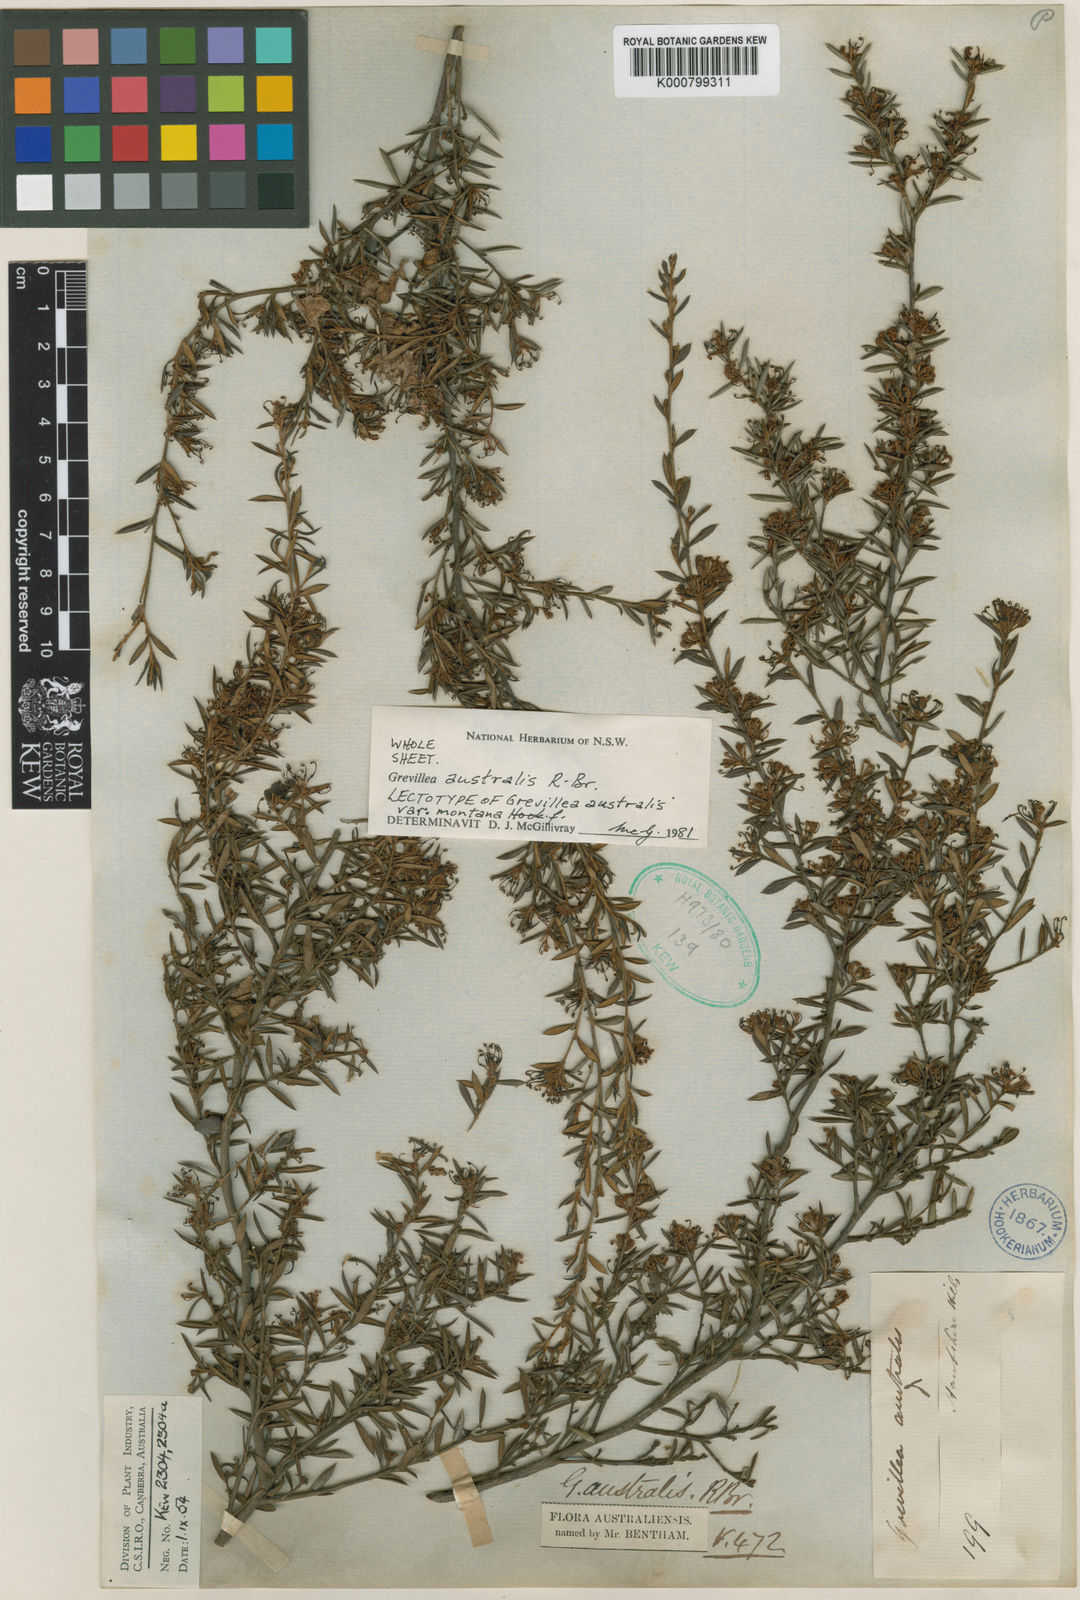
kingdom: Plantae
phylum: Tracheophyta
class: Magnoliopsida
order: Proteales
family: Proteaceae
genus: Grevillea
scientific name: Grevillea australis
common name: Alpine grevillea
